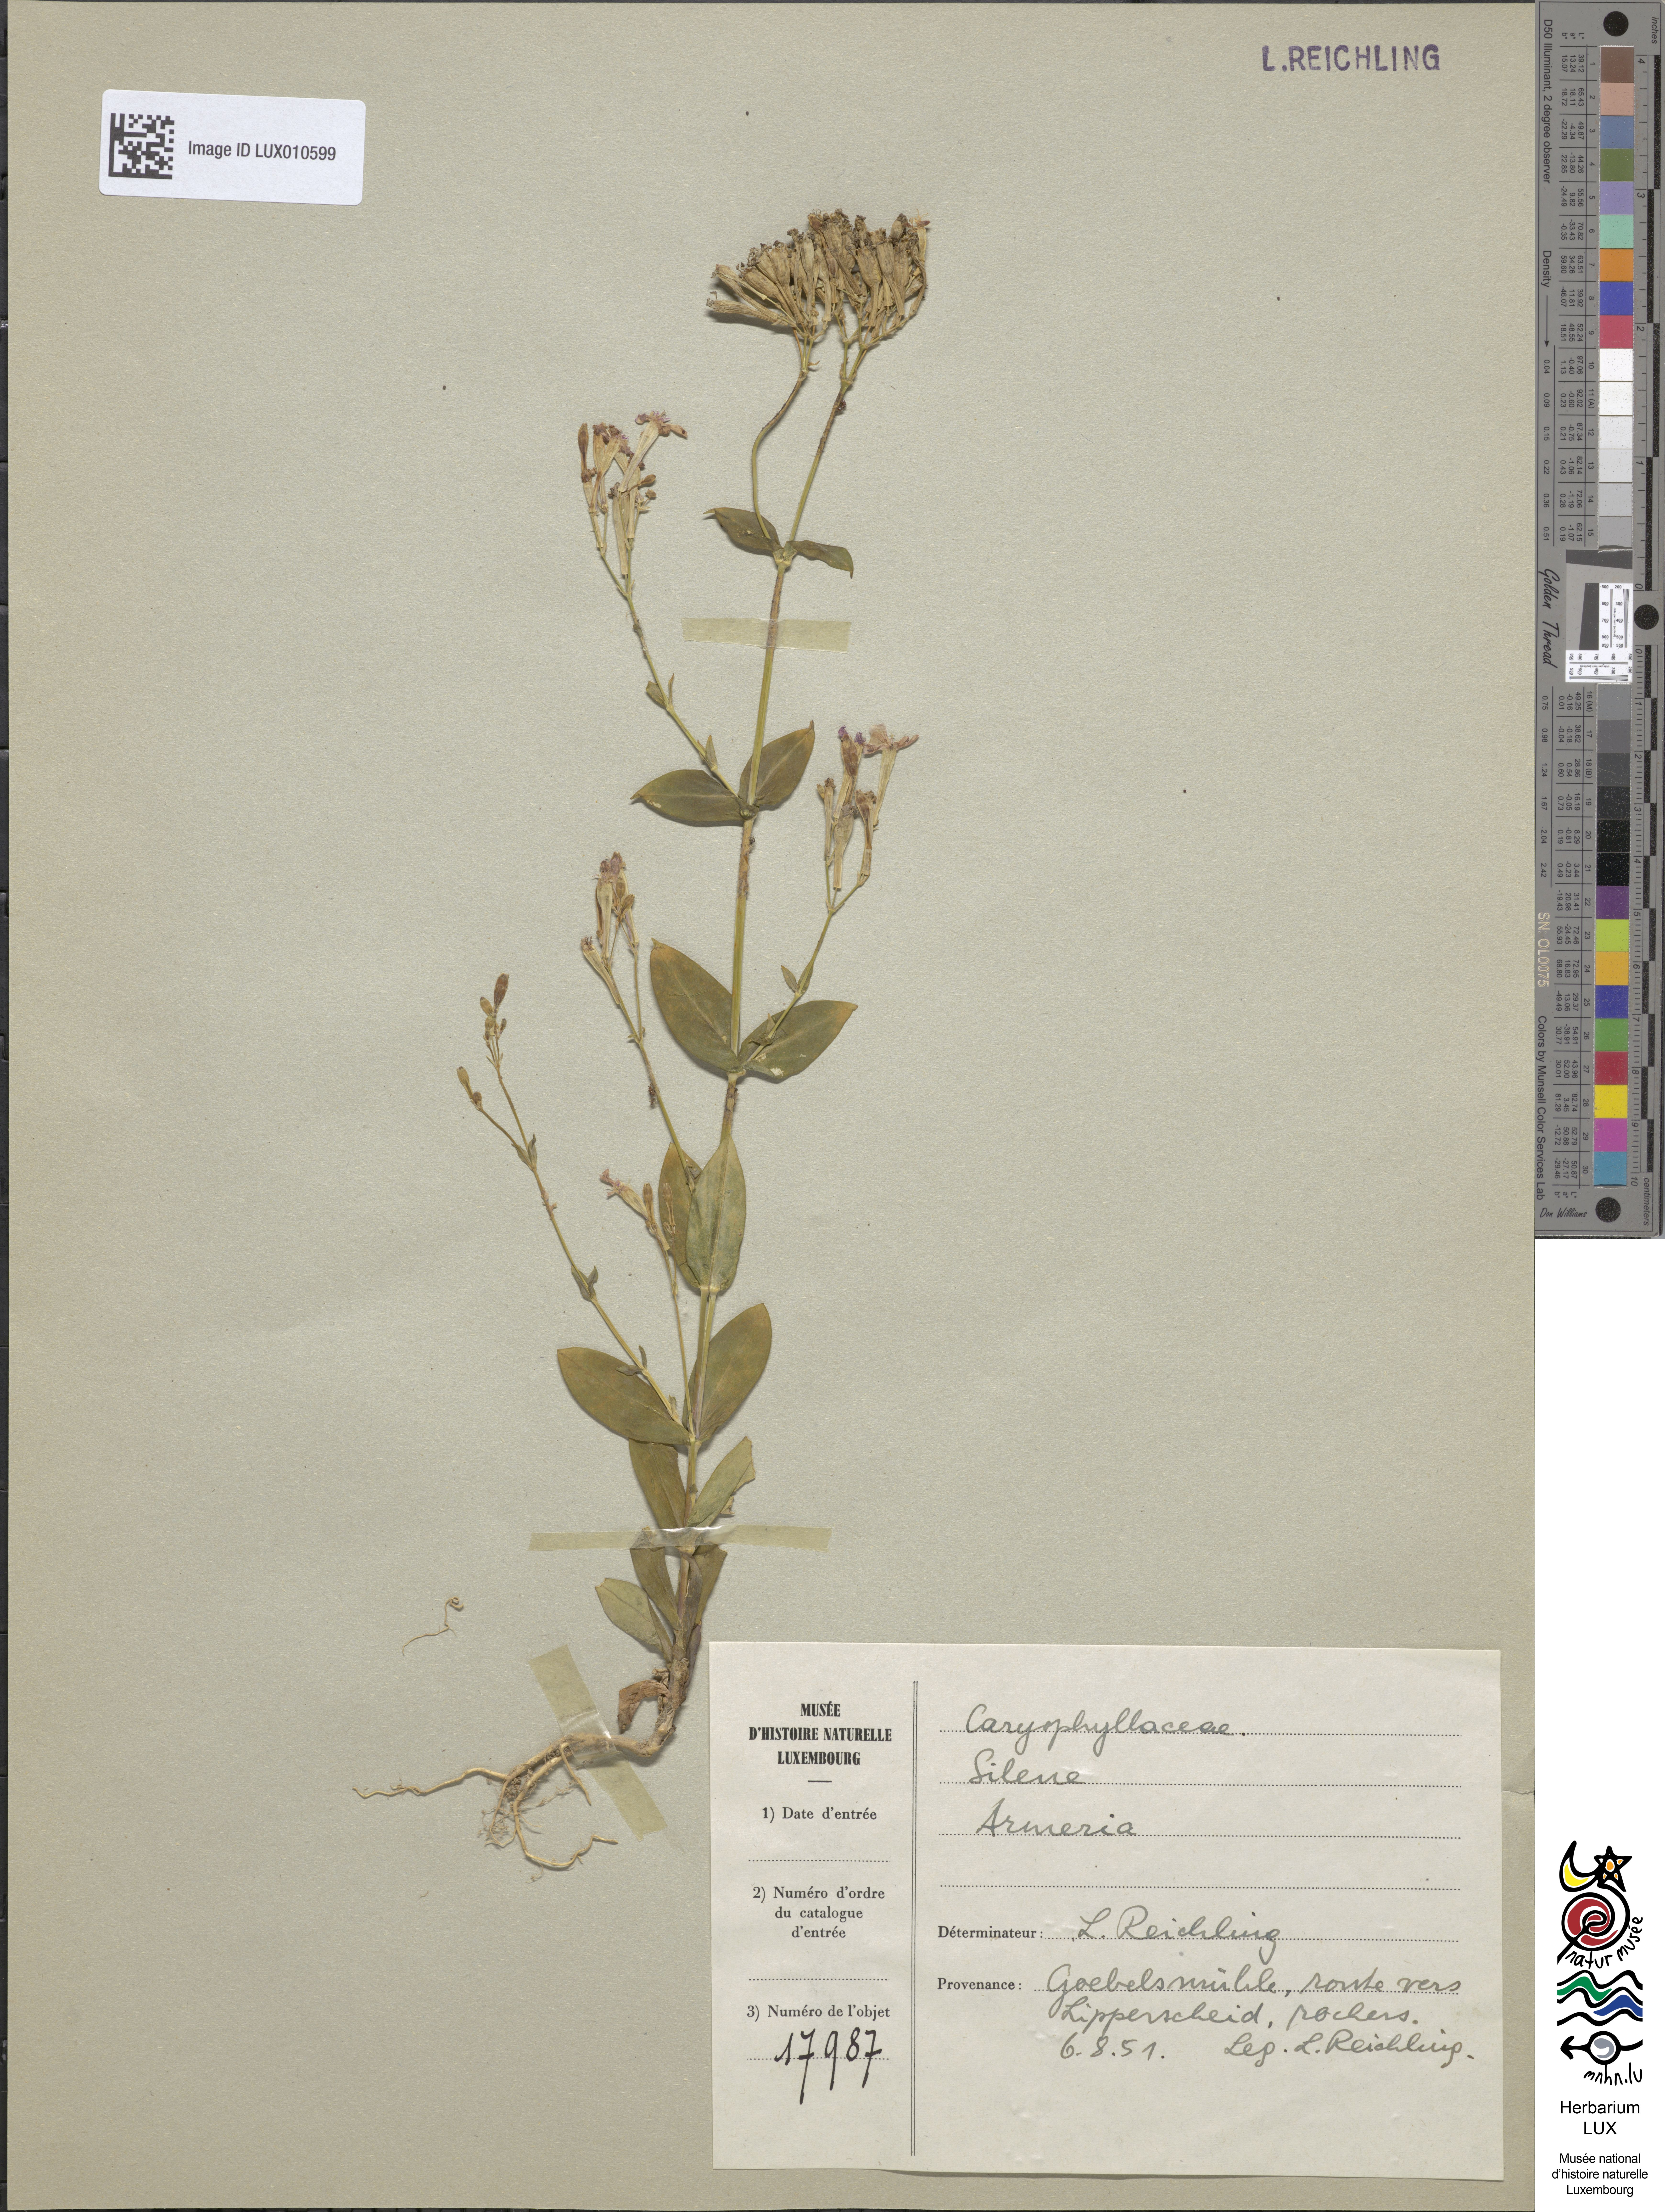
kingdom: Plantae
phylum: Tracheophyta
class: Magnoliopsida
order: Caryophyllales
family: Caryophyllaceae
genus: Atocion
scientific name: Atocion armeria
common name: Sweet william catchfly
